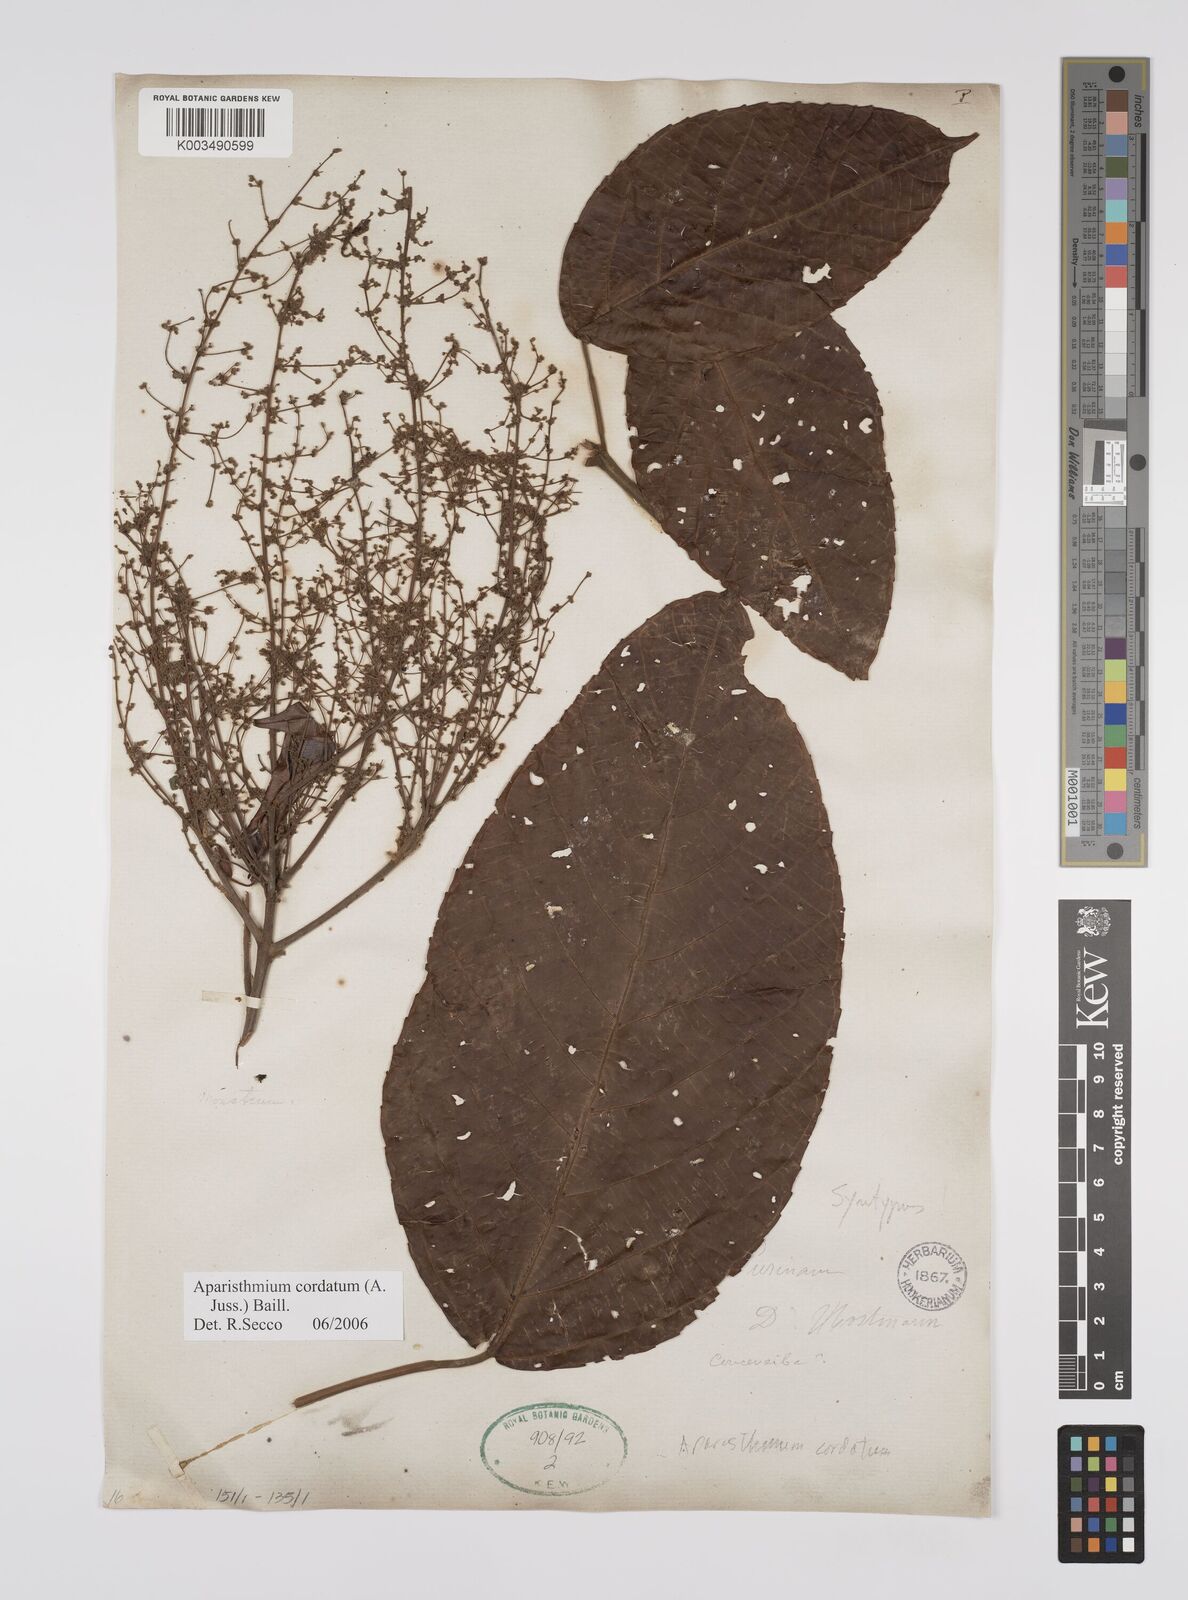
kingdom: Plantae
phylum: Tracheophyta
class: Magnoliopsida
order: Malpighiales
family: Euphorbiaceae
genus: Aparisthmium
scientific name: Aparisthmium cordatum
